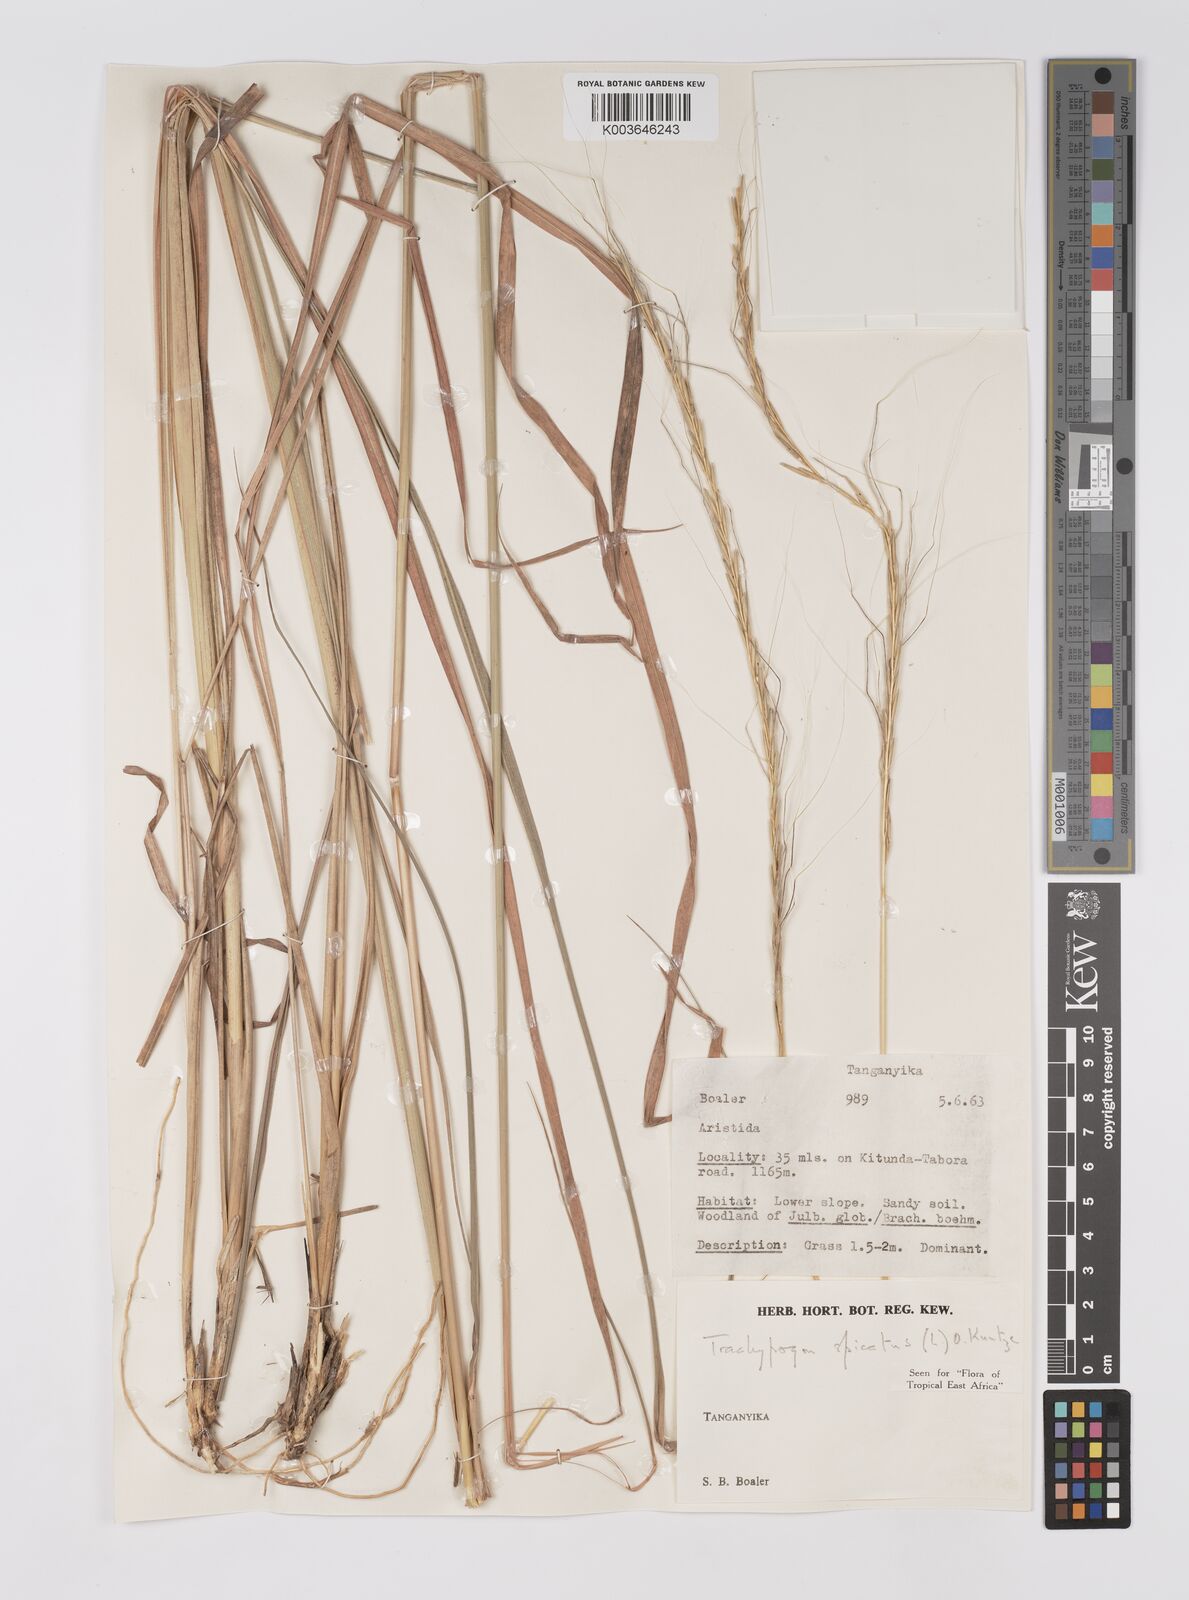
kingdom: Plantae
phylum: Tracheophyta
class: Liliopsida
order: Poales
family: Poaceae
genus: Trachypogon
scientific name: Trachypogon spicatus
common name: Crinkle-awn
